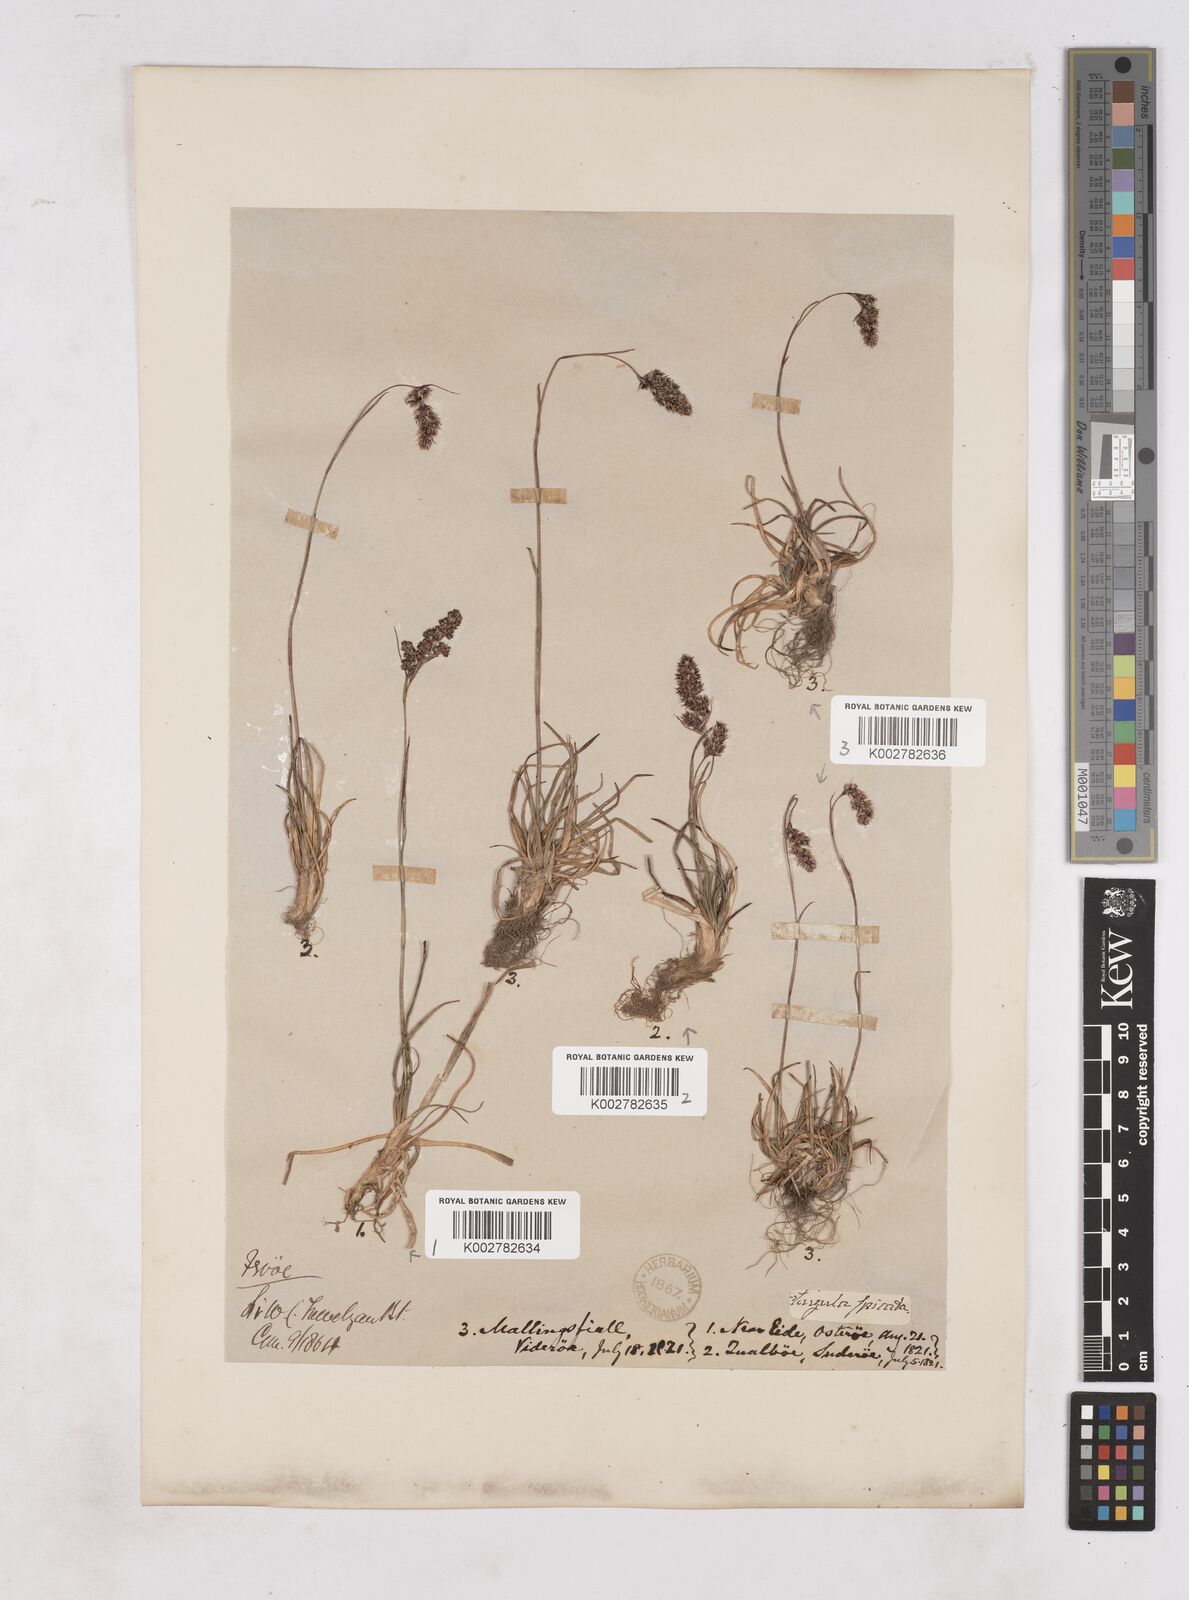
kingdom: Plantae
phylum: Tracheophyta
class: Liliopsida
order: Poales
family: Juncaceae
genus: Luzula
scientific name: Luzula spicata
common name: Spiked wood-rush
